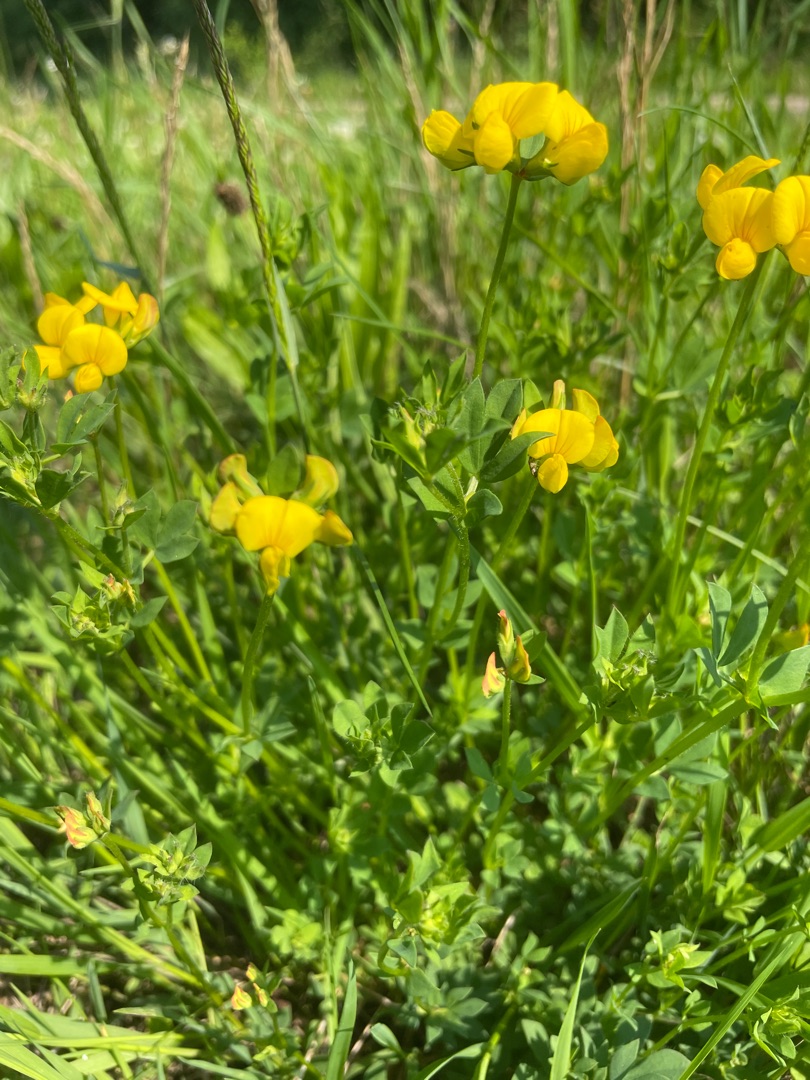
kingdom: Plantae
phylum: Tracheophyta
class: Magnoliopsida
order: Fabales
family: Fabaceae
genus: Lotus
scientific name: Lotus corniculatus
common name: Almindelig kællingetand
